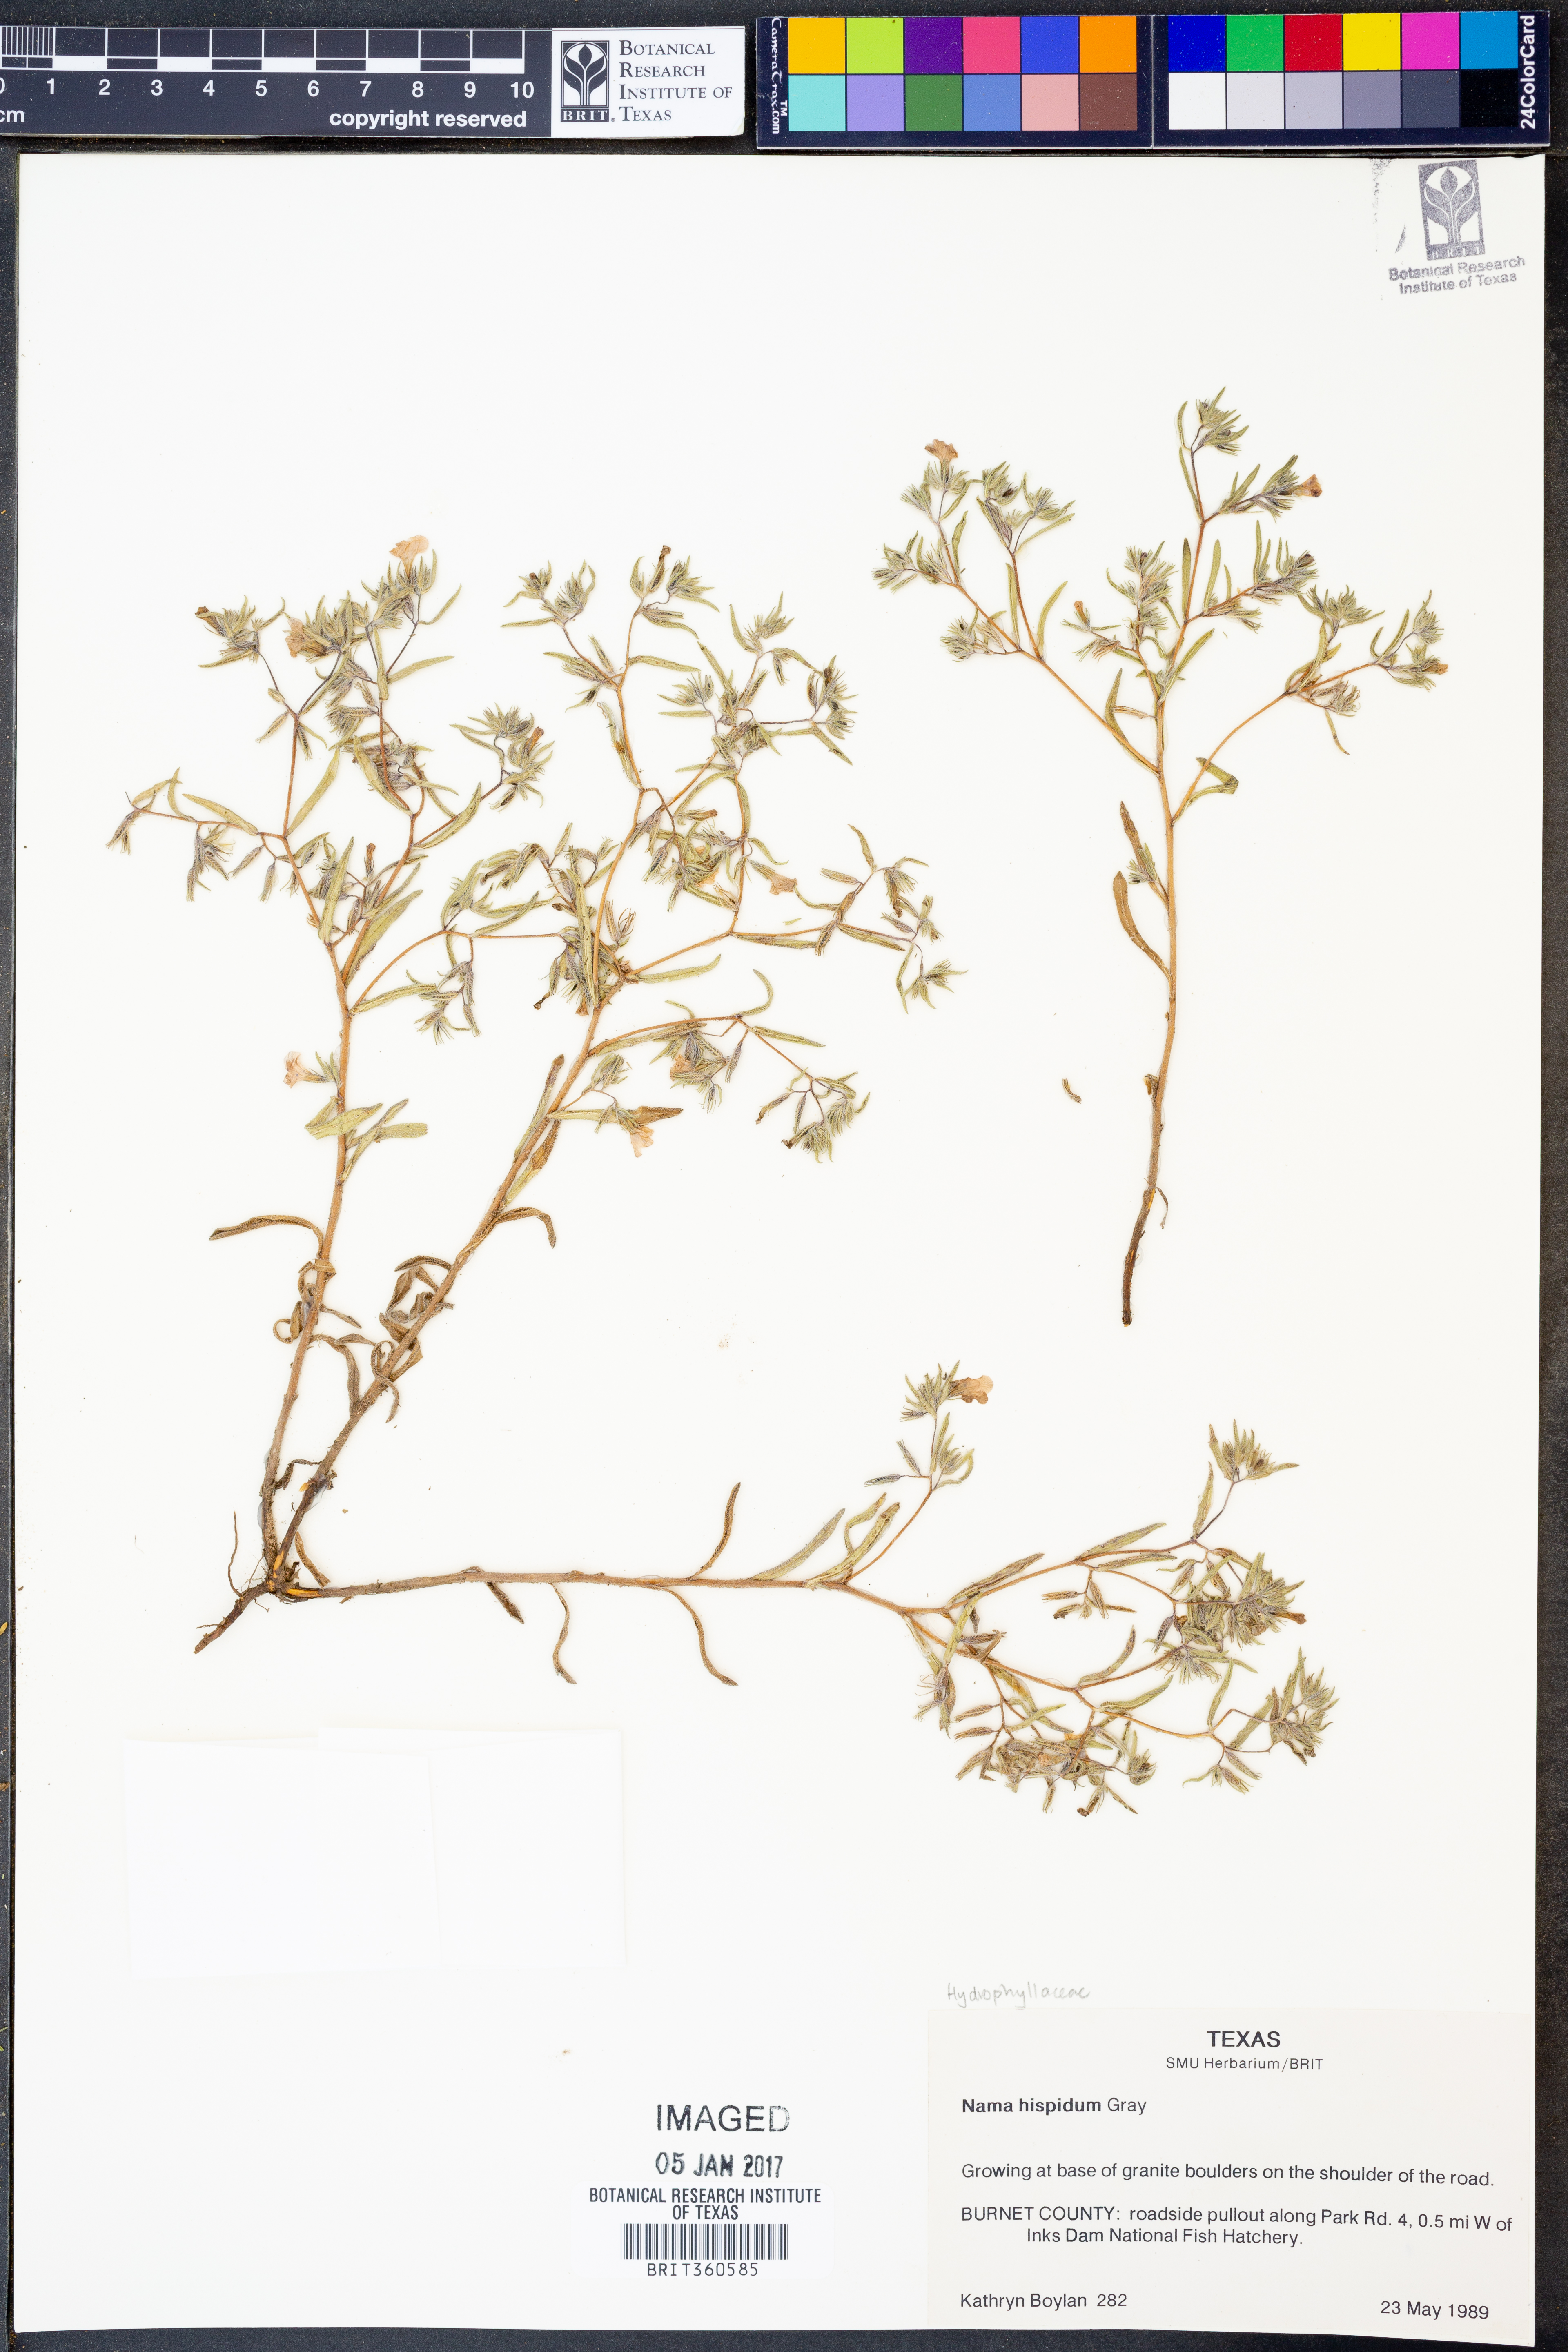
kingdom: Plantae
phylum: Tracheophyta
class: Magnoliopsida
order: Boraginales
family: Namaceae
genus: Nama
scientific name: Nama hispida
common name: Bristly nama
